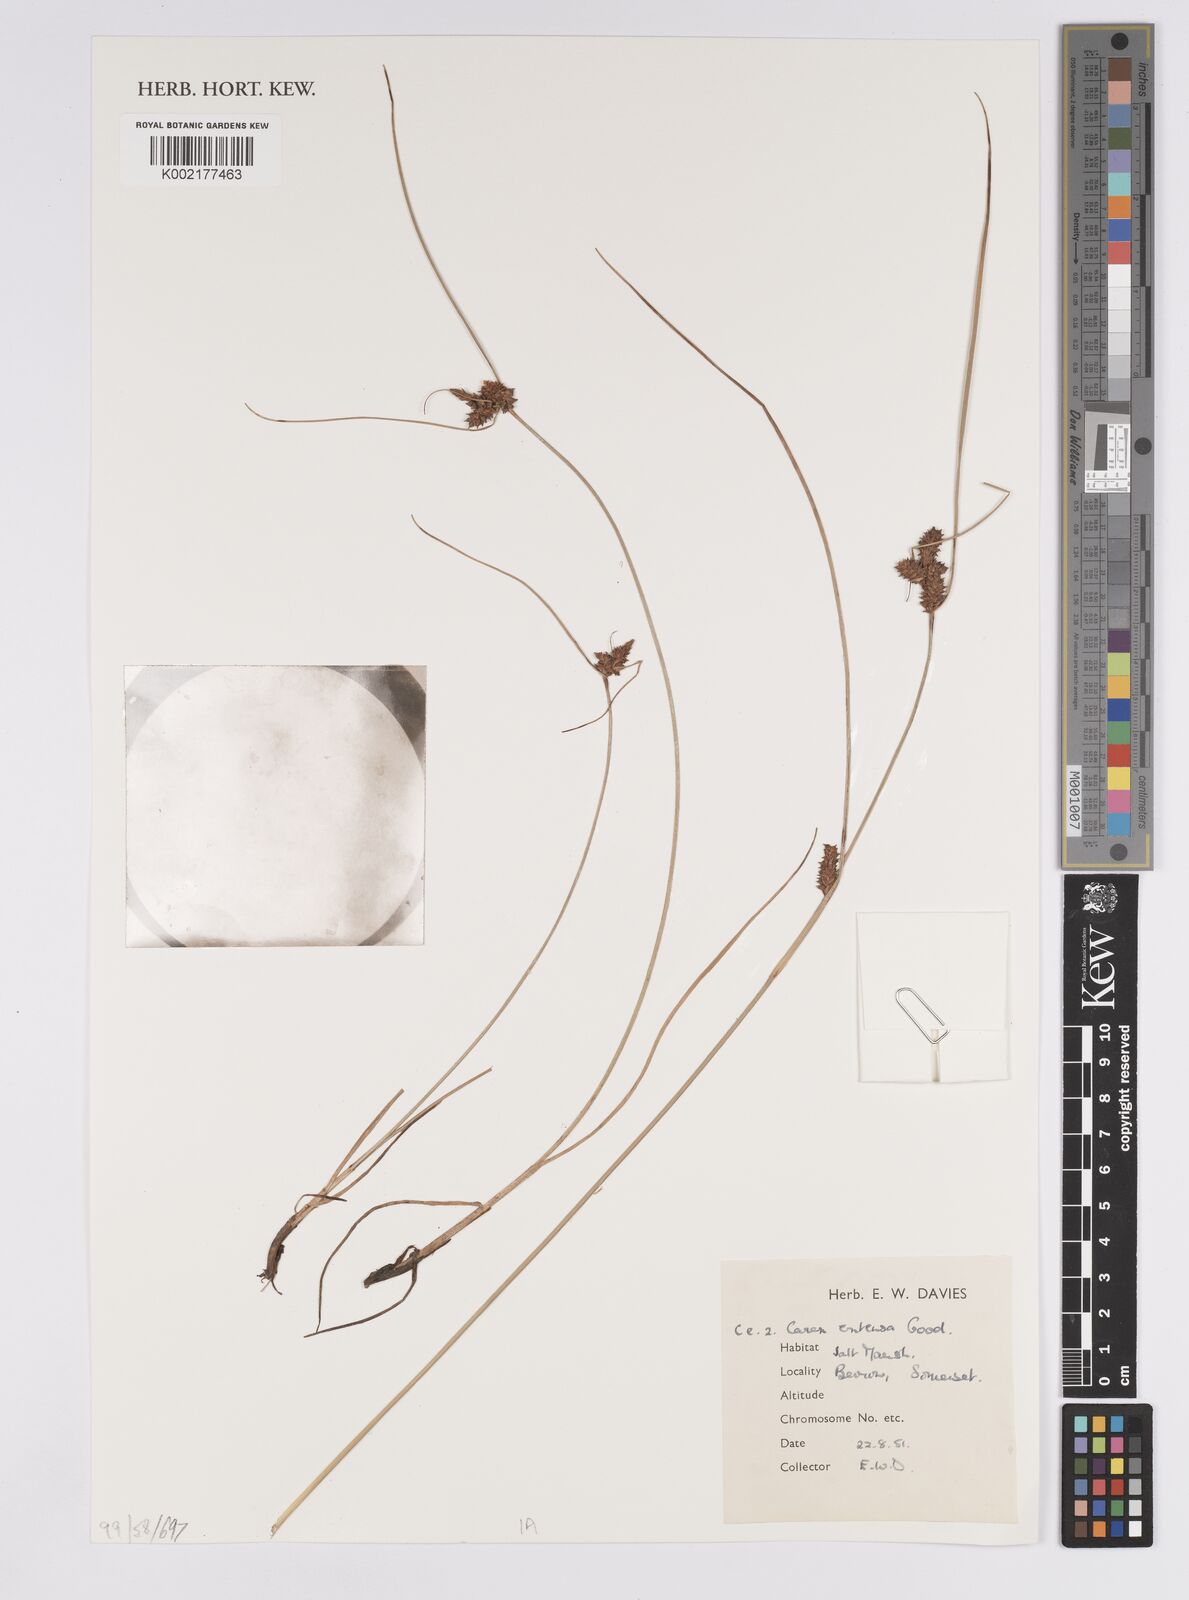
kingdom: Plantae
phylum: Tracheophyta
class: Liliopsida
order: Poales
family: Cyperaceae
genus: Carex
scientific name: Carex extensa
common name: Long-bracted sedge
